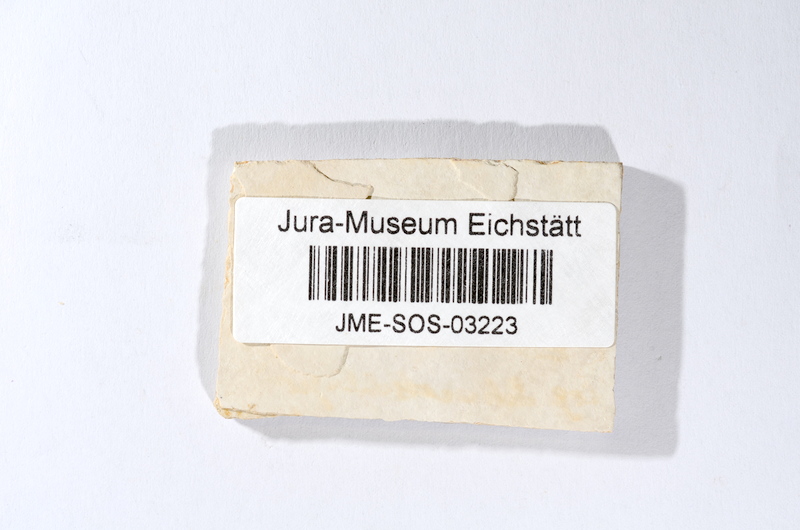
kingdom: Animalia
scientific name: Animalia
